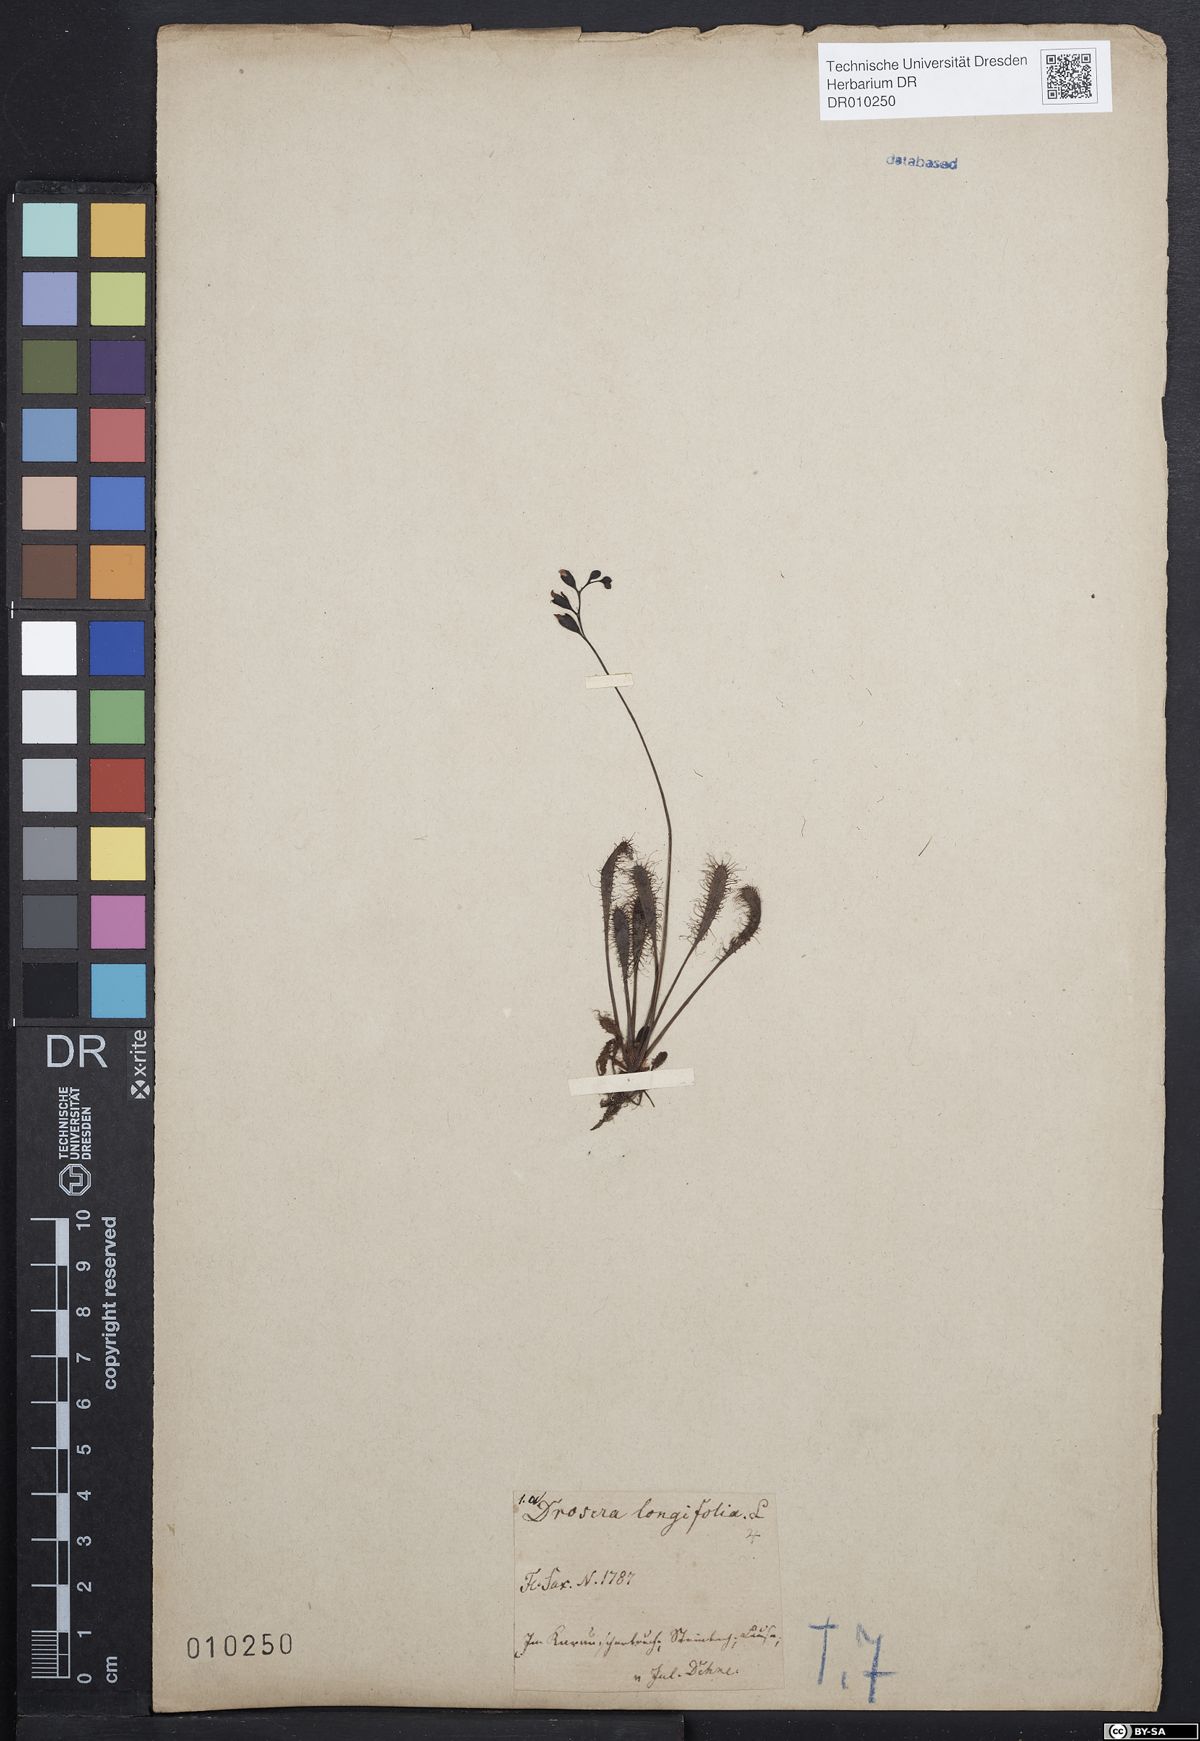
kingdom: Plantae
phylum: Tracheophyta
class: Magnoliopsida
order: Caryophyllales
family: Droseraceae
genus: Drosera
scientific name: Drosera anglica
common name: Great sundew
